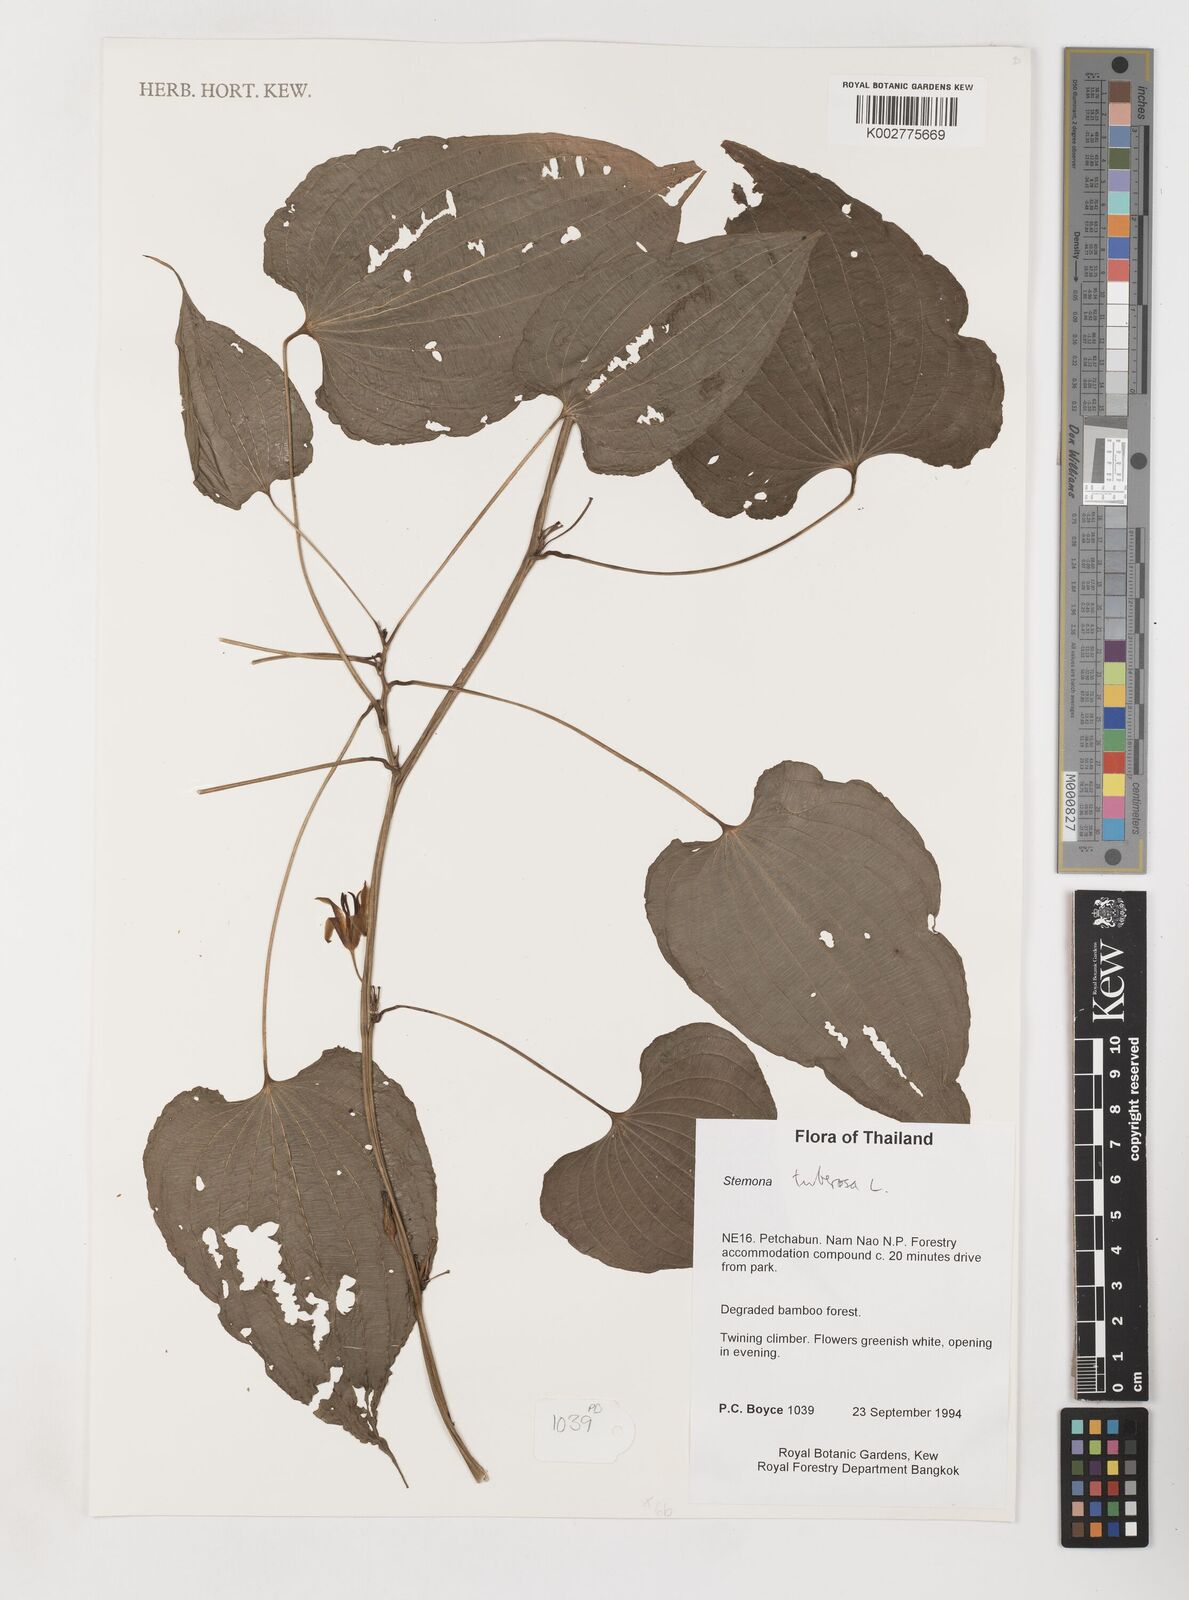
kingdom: Plantae
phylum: Tracheophyta
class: Liliopsida
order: Pandanales
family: Stemonaceae
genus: Stemona
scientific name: Stemona tuberosa
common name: Stemona
